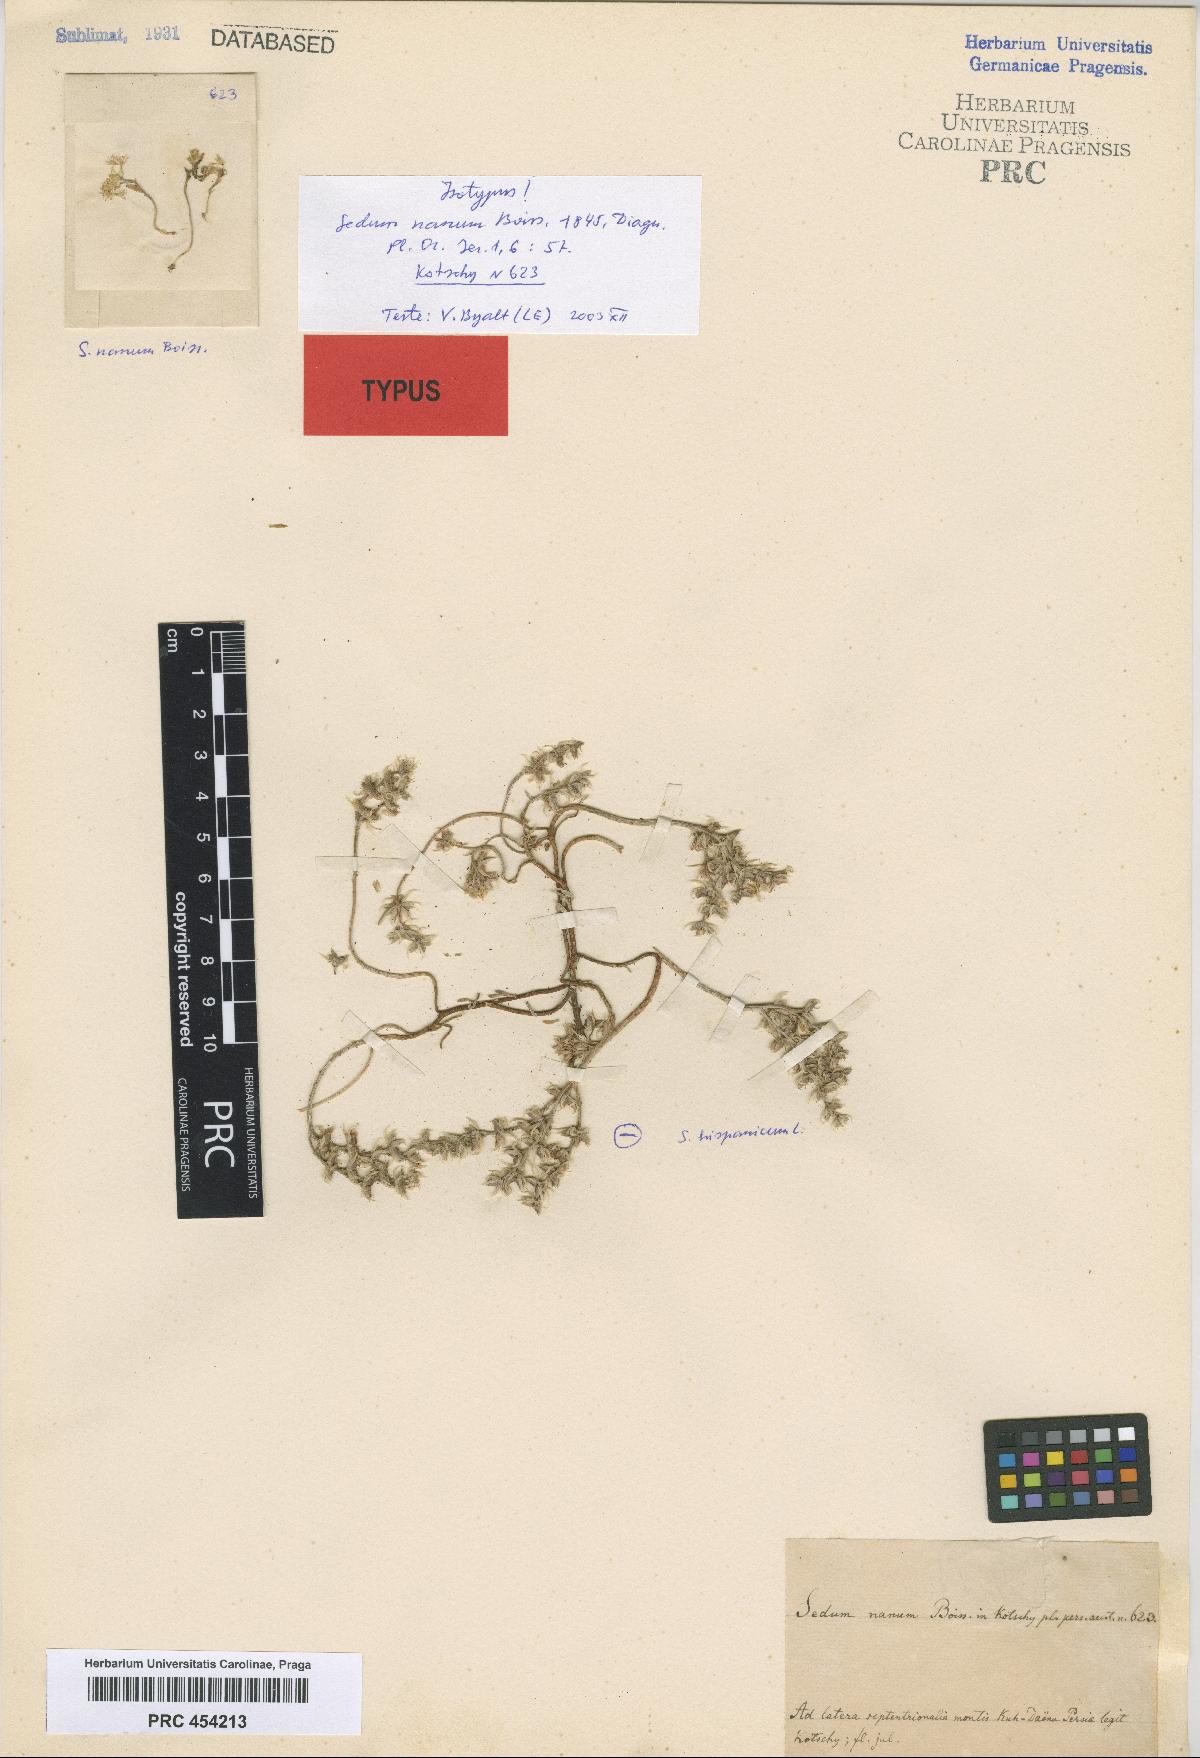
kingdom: Plantae
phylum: Tracheophyta
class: Magnoliopsida
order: Saxifragales
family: Crassulaceae
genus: Sedum
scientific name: Sedum nanum
